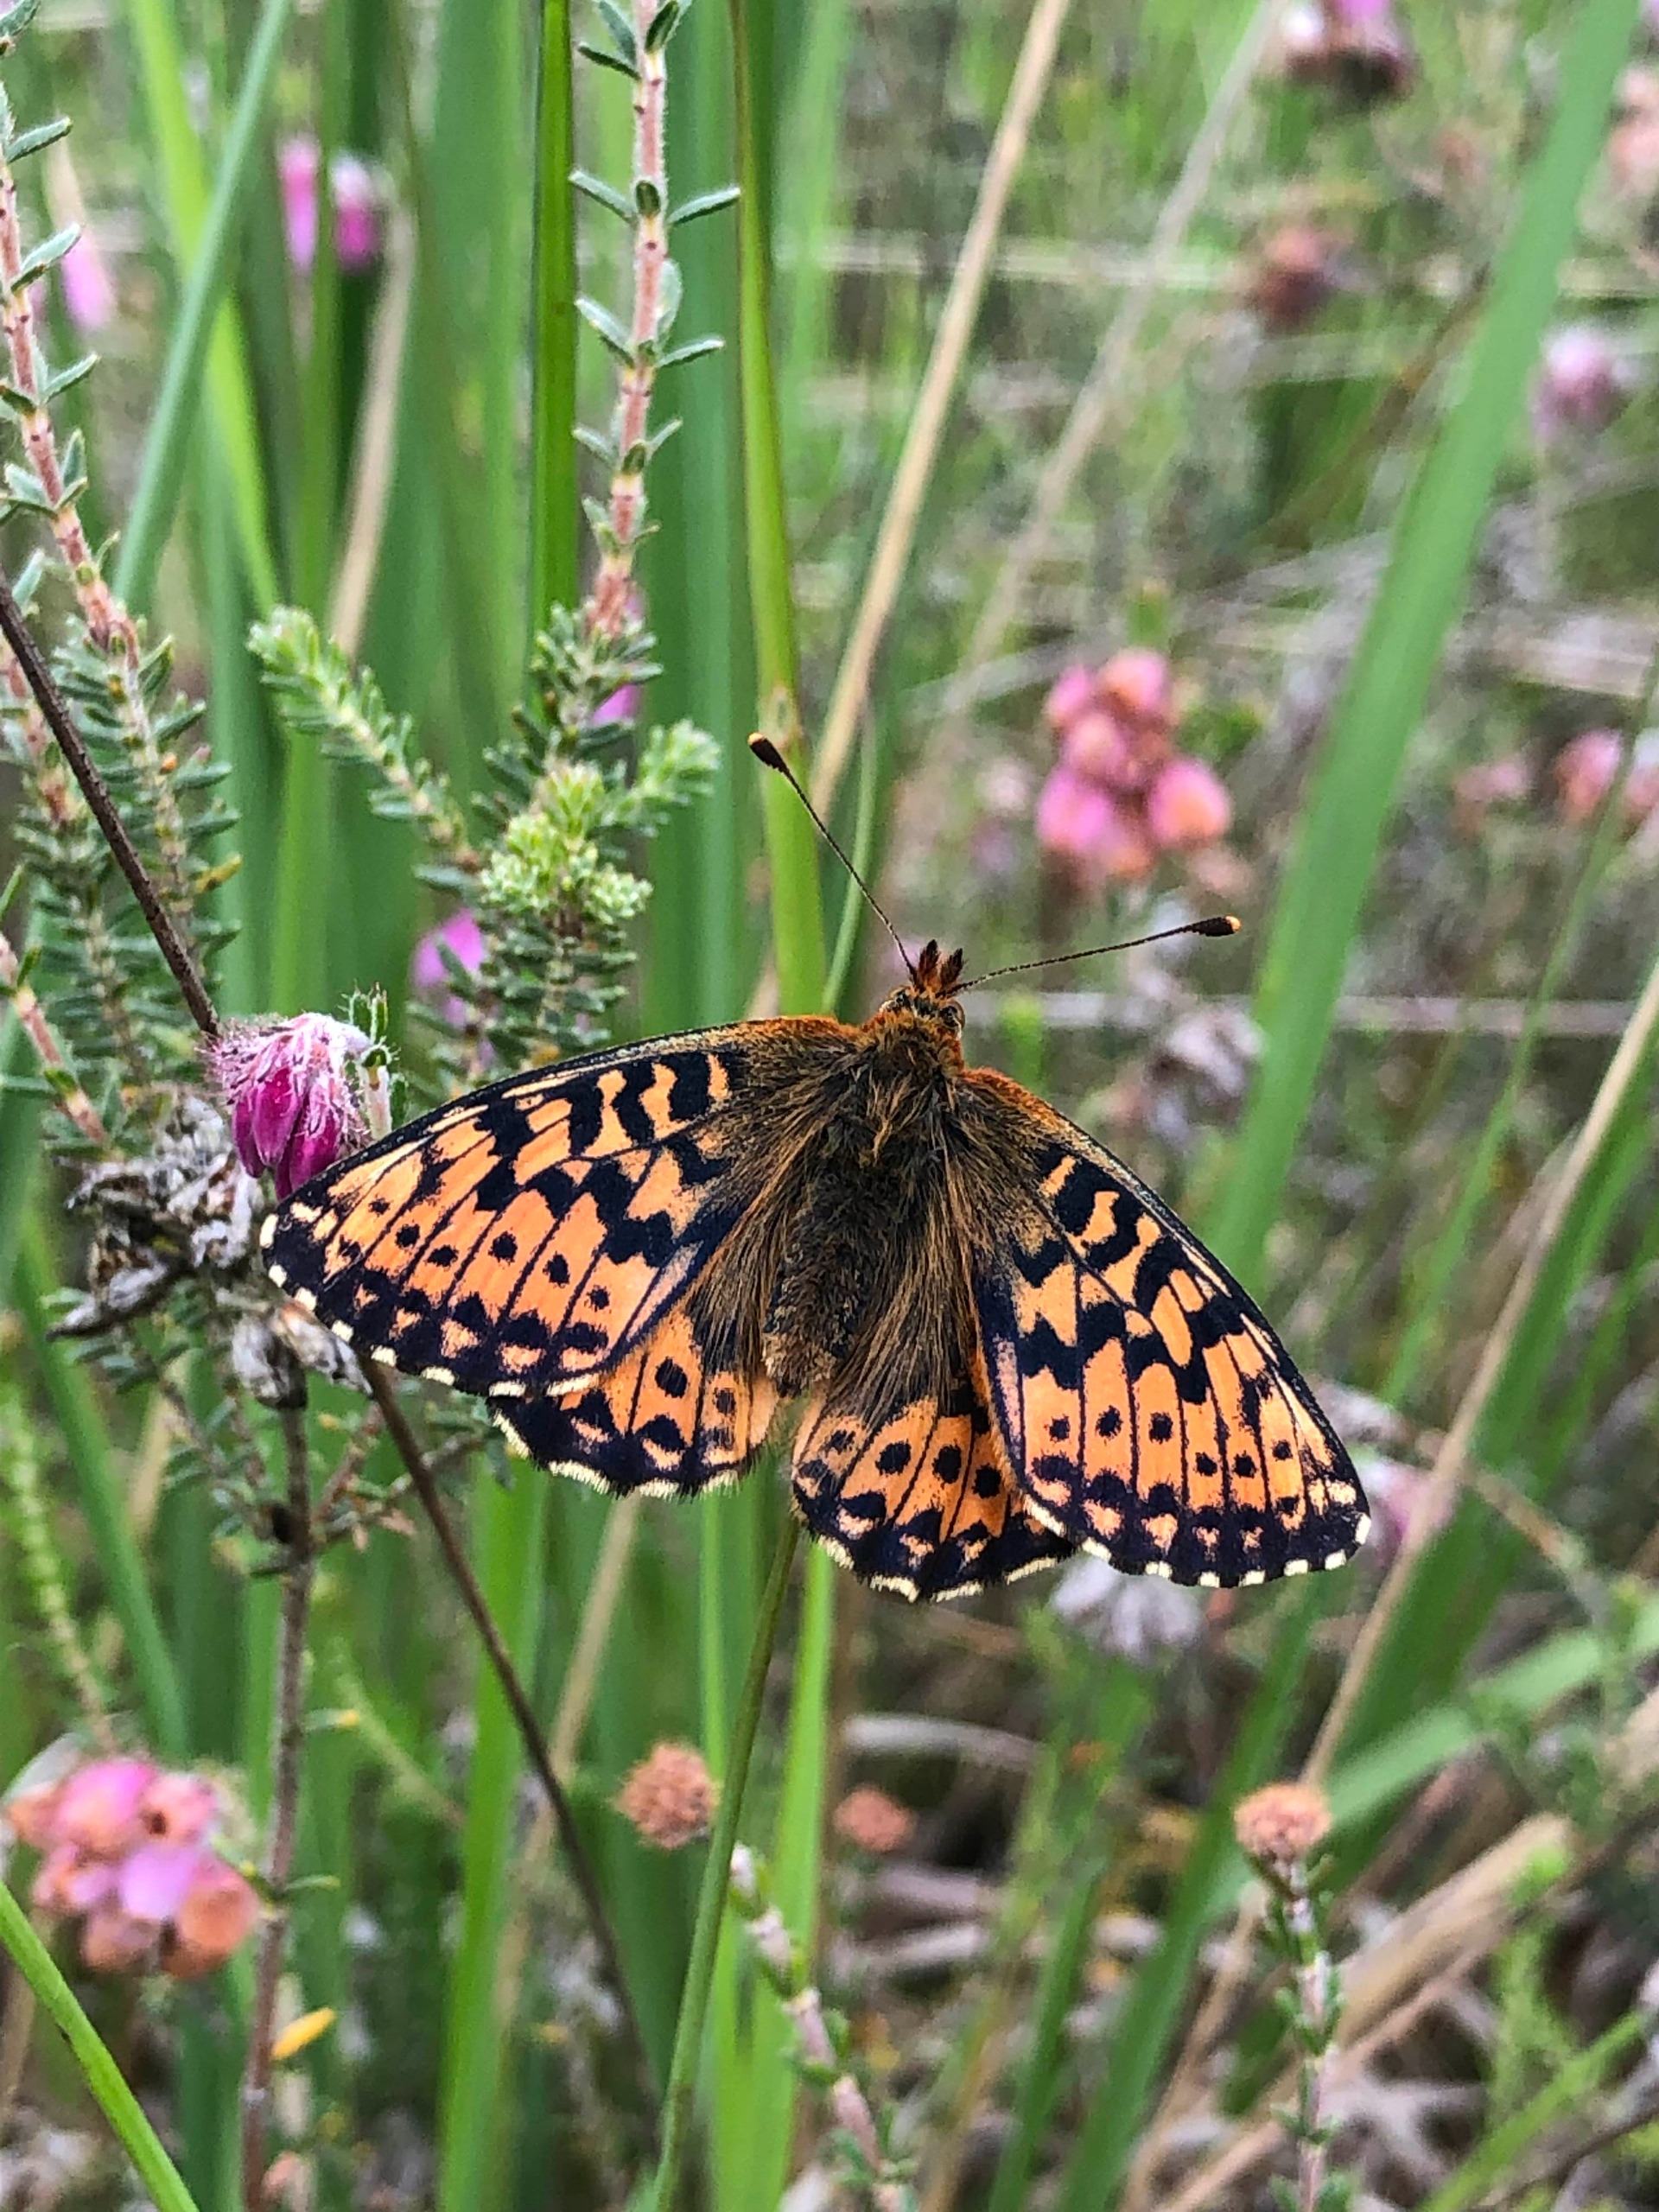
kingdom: Animalia
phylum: Arthropoda
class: Insecta
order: Lepidoptera
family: Nymphalidae
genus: Boloria
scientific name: Boloria aquilonaris
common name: Moseperlemorsommerfugl
